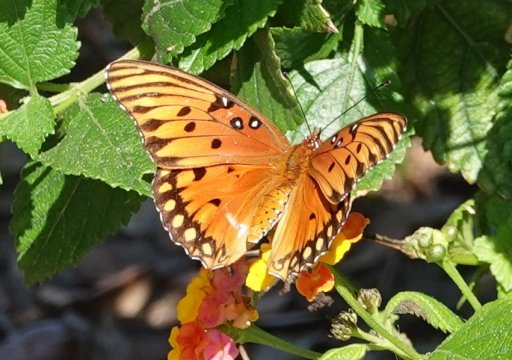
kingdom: Animalia
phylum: Arthropoda
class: Insecta
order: Lepidoptera
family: Nymphalidae
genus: Dione
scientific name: Dione vanillae
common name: Gulf Fritillary
